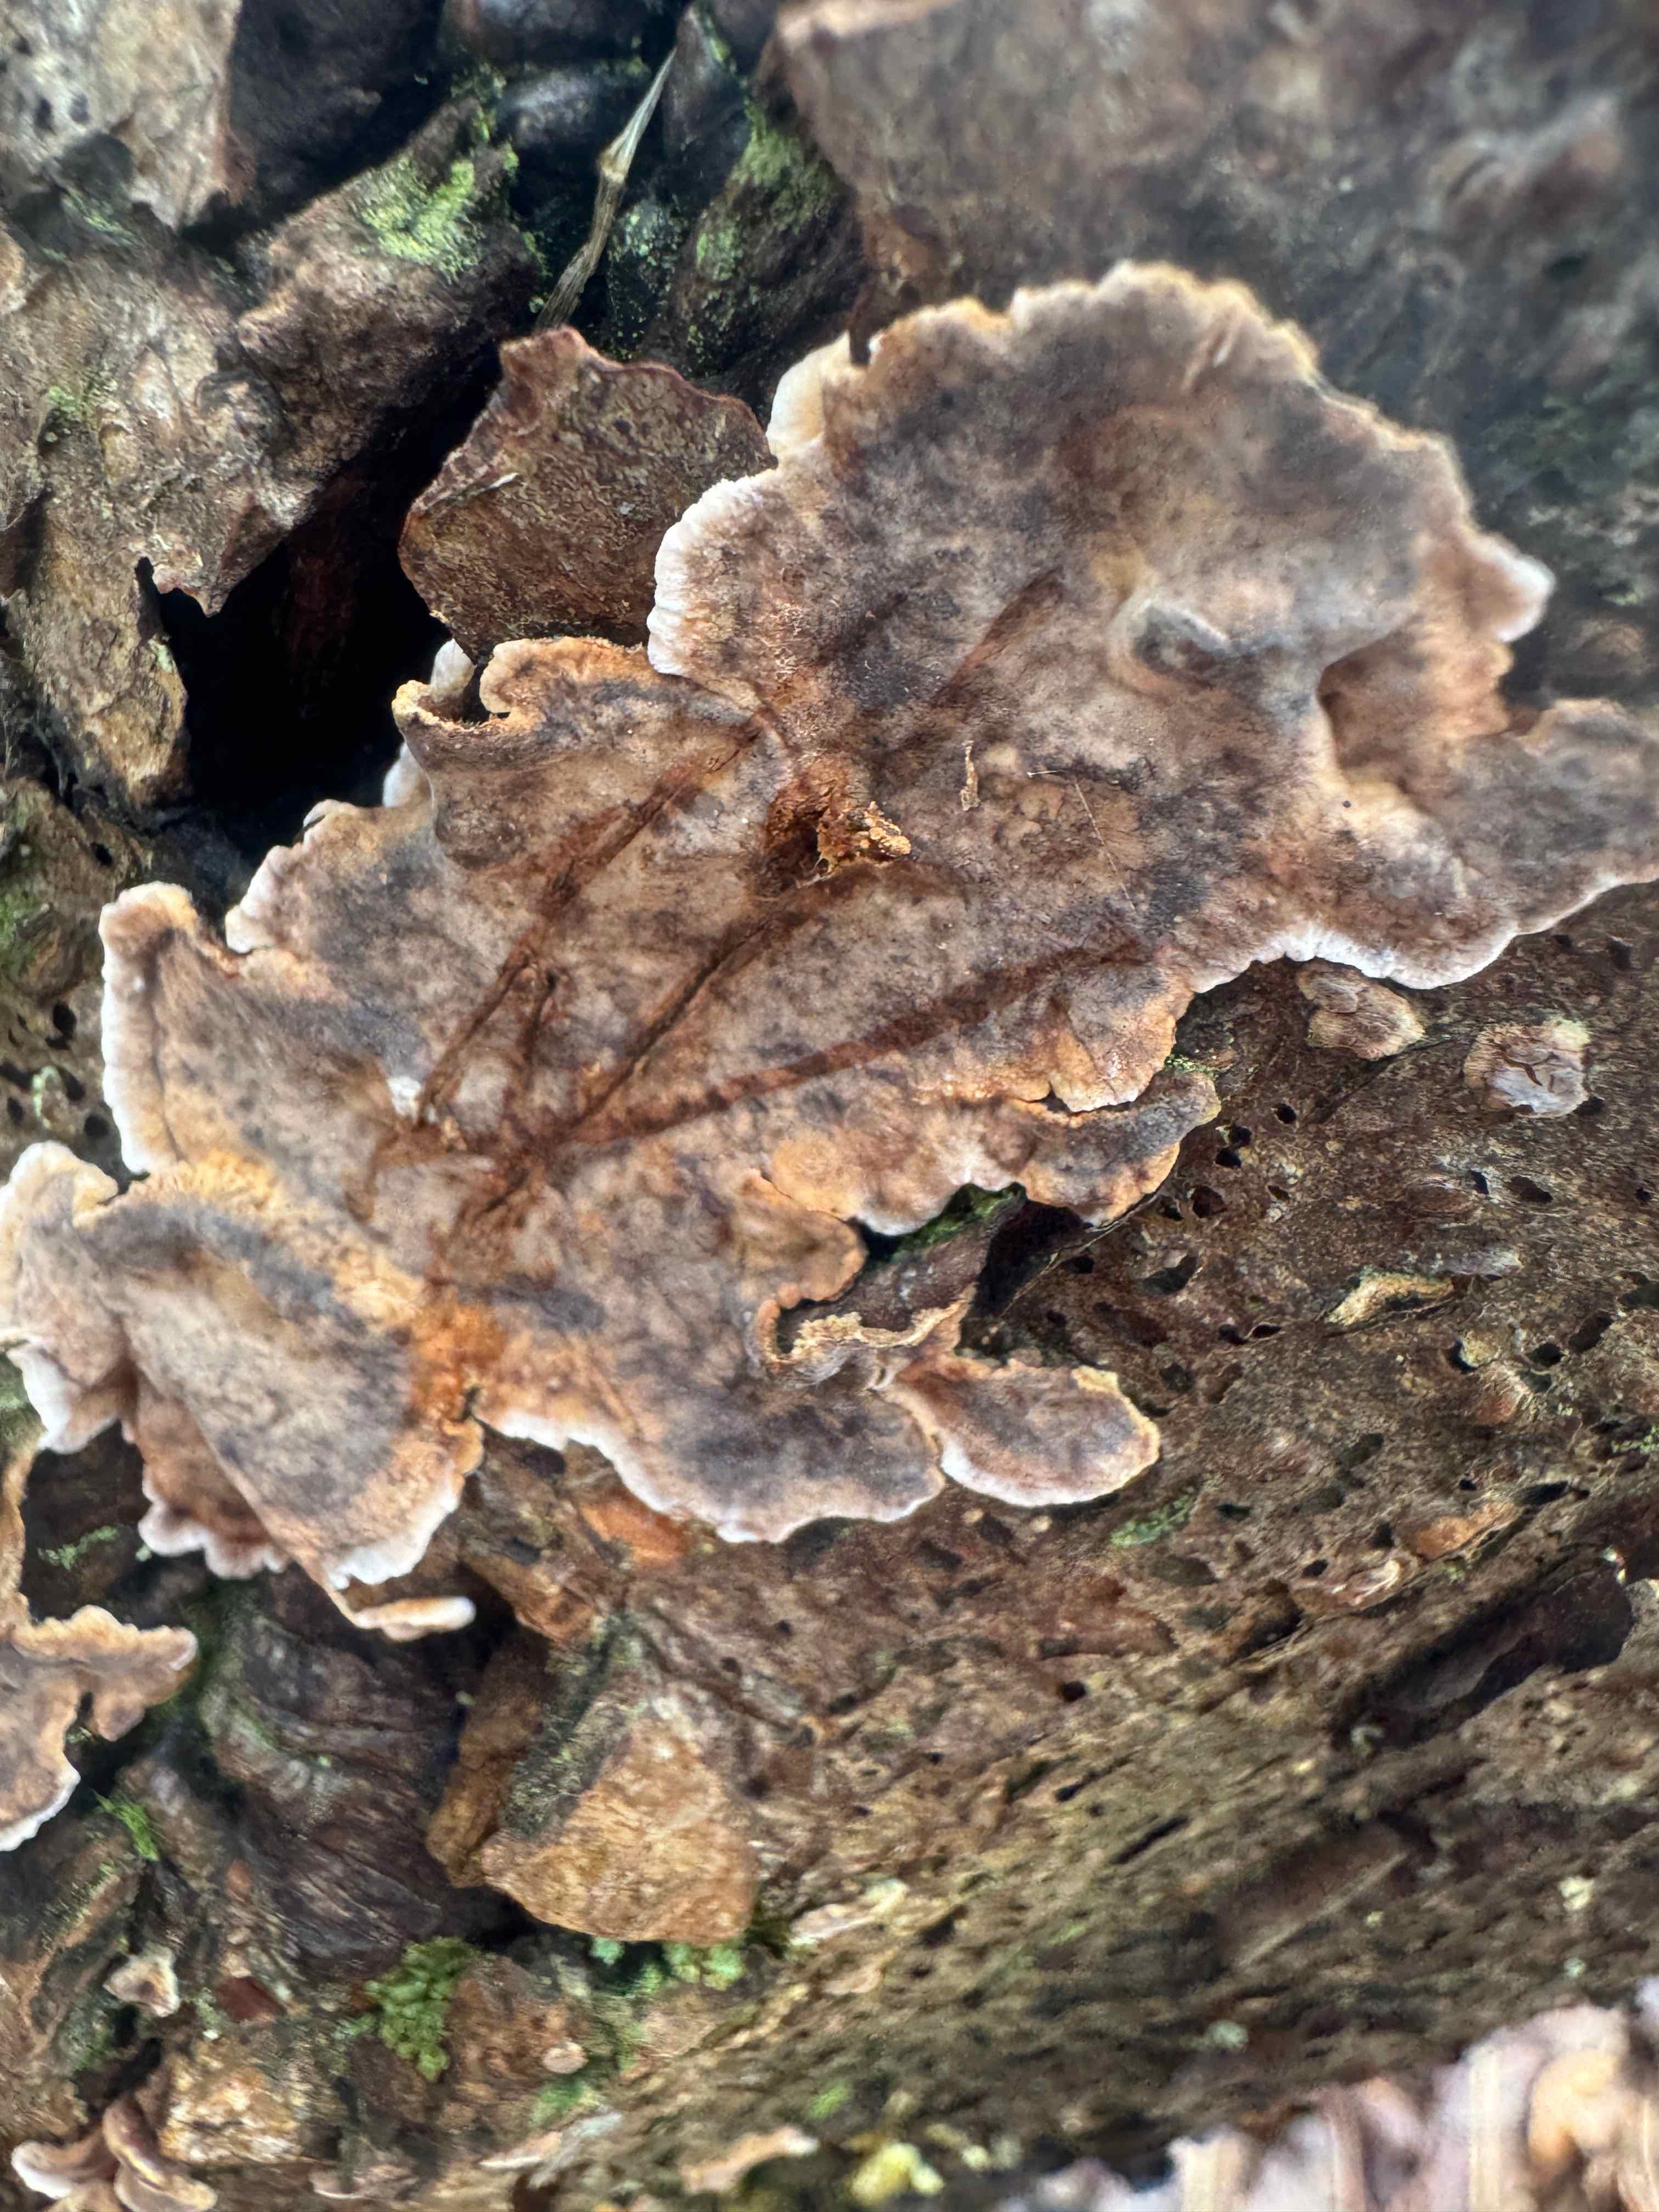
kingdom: Fungi
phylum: Basidiomycota
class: Agaricomycetes
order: Russulales
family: Stereaceae
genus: Stereum
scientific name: Stereum rugosum
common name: rynket lædersvamp
